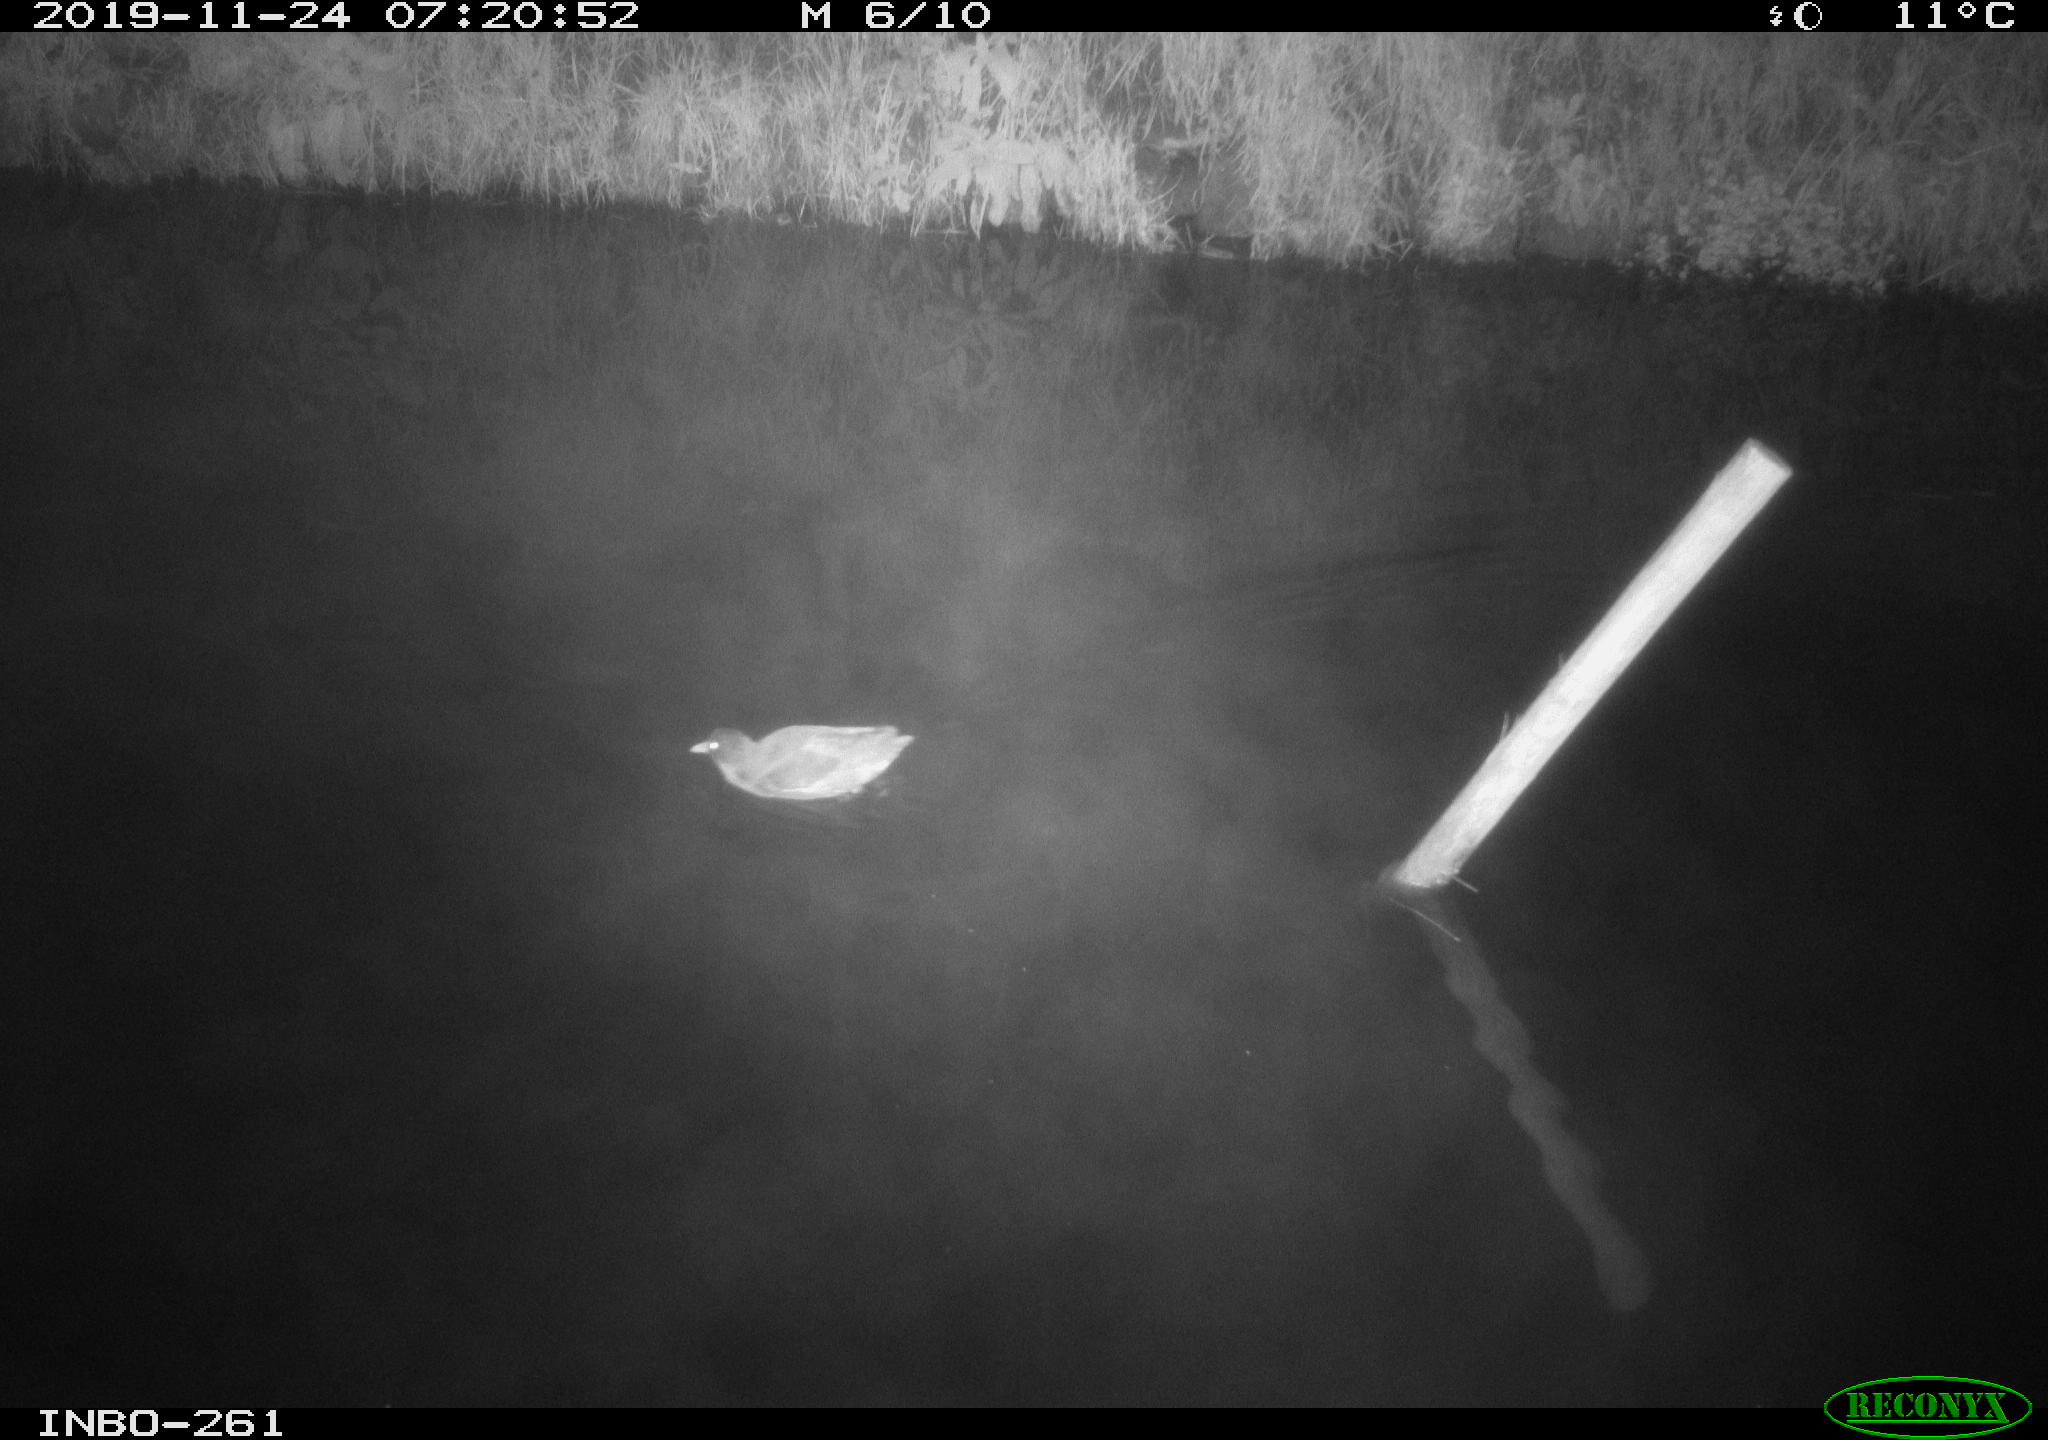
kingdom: Animalia
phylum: Chordata
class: Aves
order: Gruiformes
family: Rallidae
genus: Gallinula
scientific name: Gallinula chloropus
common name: Common moorhen
